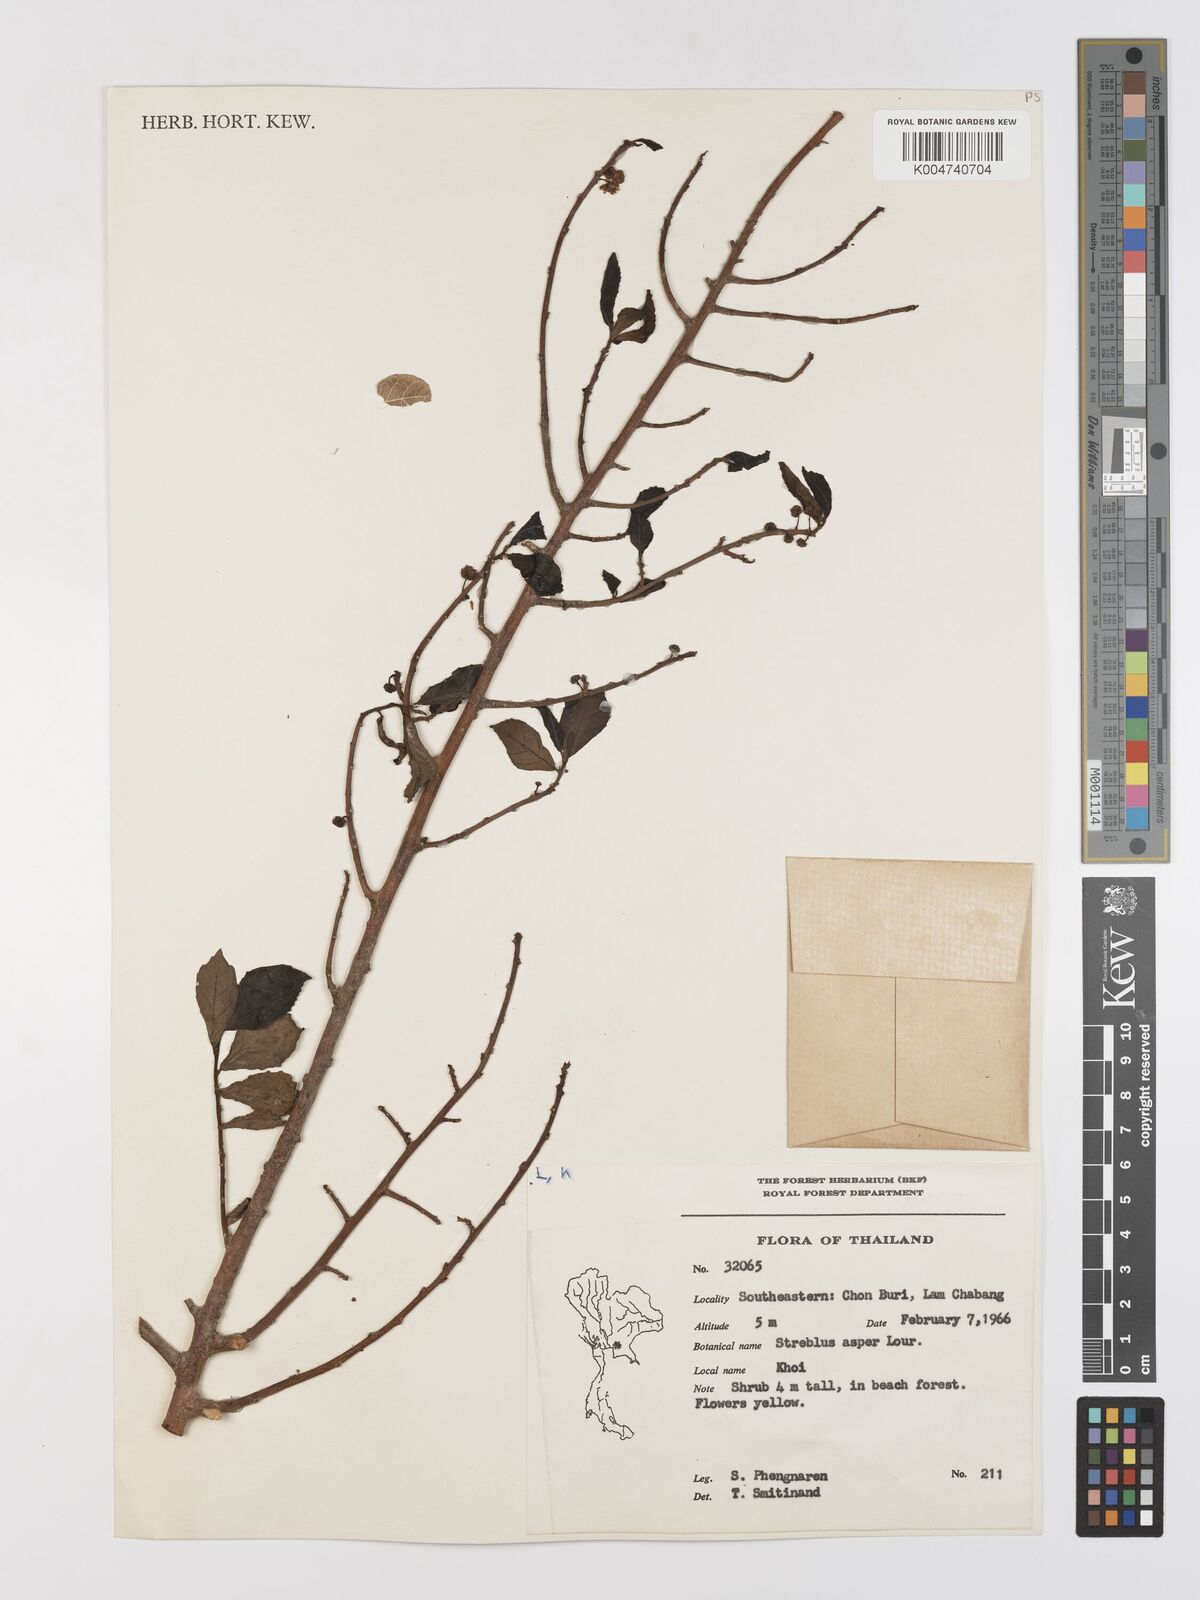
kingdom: Plantae
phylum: Tracheophyta
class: Magnoliopsida
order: Rosales
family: Moraceae
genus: Streblus
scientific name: Streblus asper
